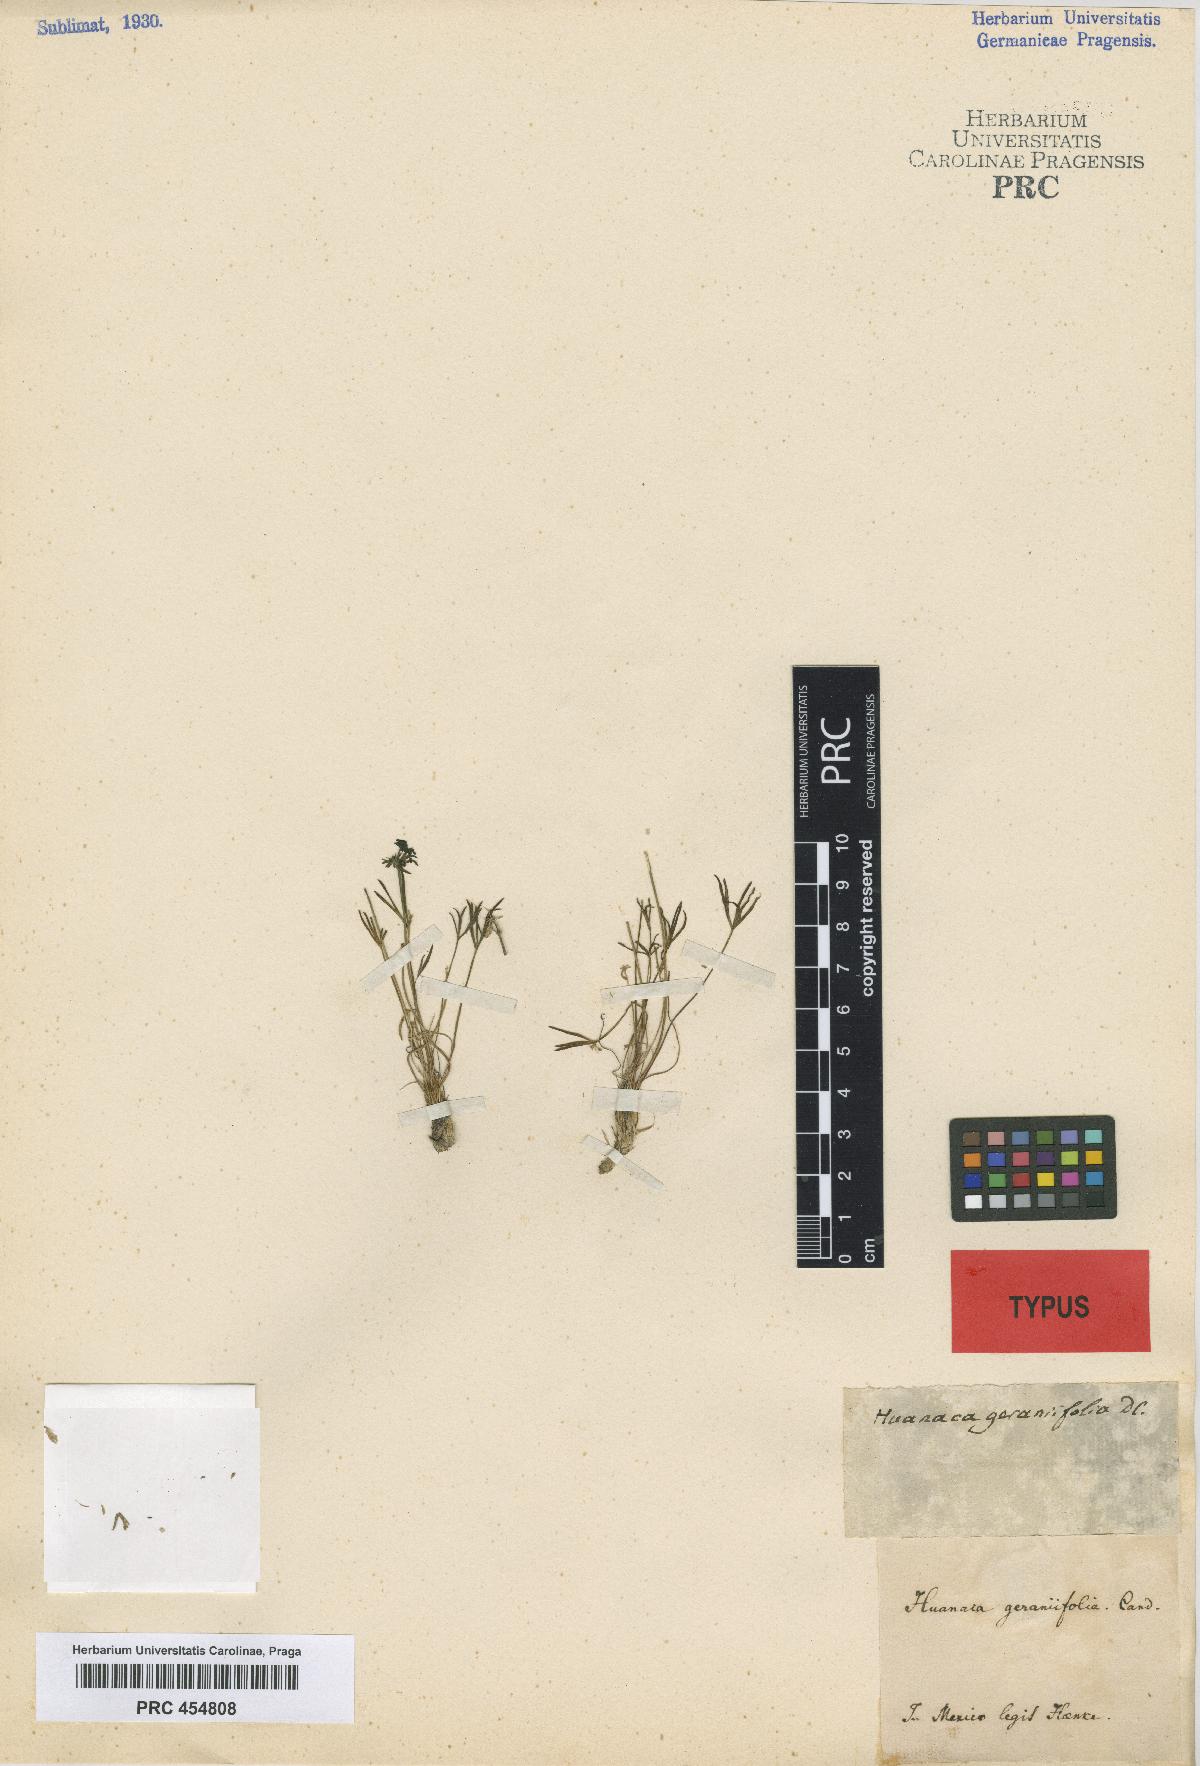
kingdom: Plantae
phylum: Tracheophyta
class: Magnoliopsida
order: Apiales
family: Apiaceae
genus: Azorella
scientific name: Azorella acaulis
